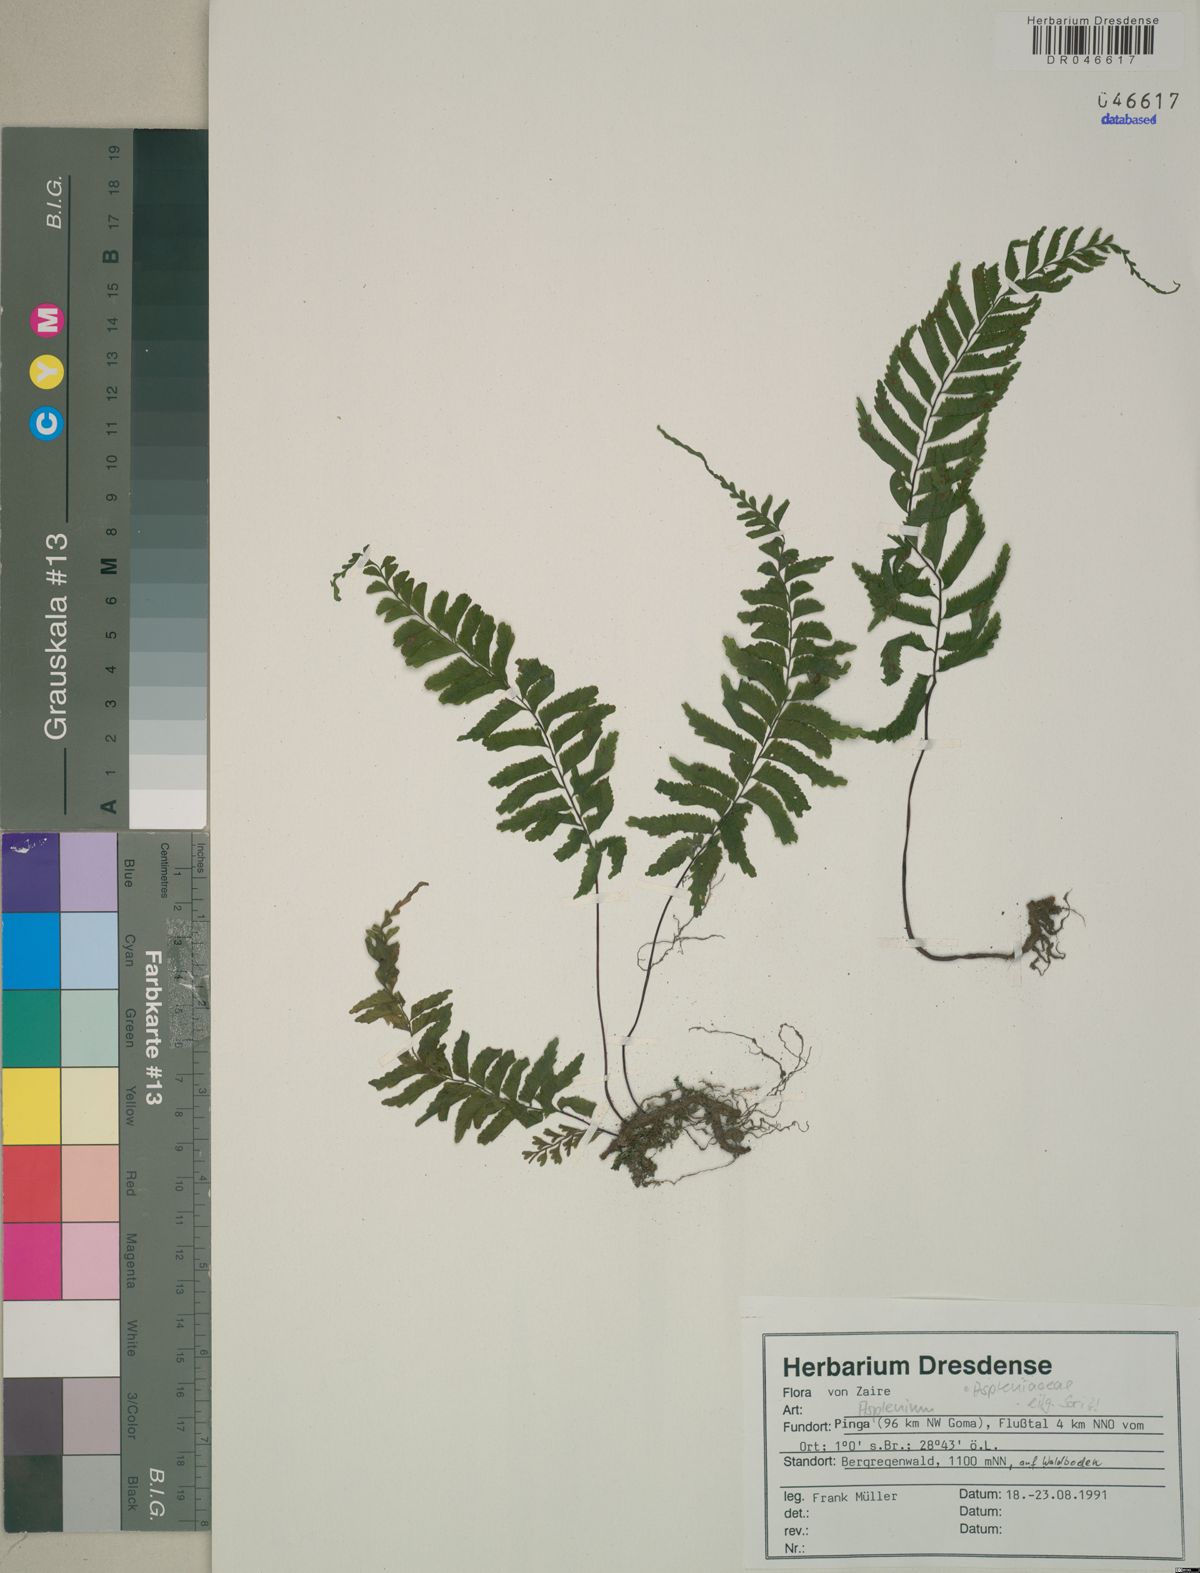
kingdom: Plantae
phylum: Tracheophyta
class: Polypodiopsida
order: Polypodiales
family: Aspleniaceae
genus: Asplenium
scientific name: Asplenium
